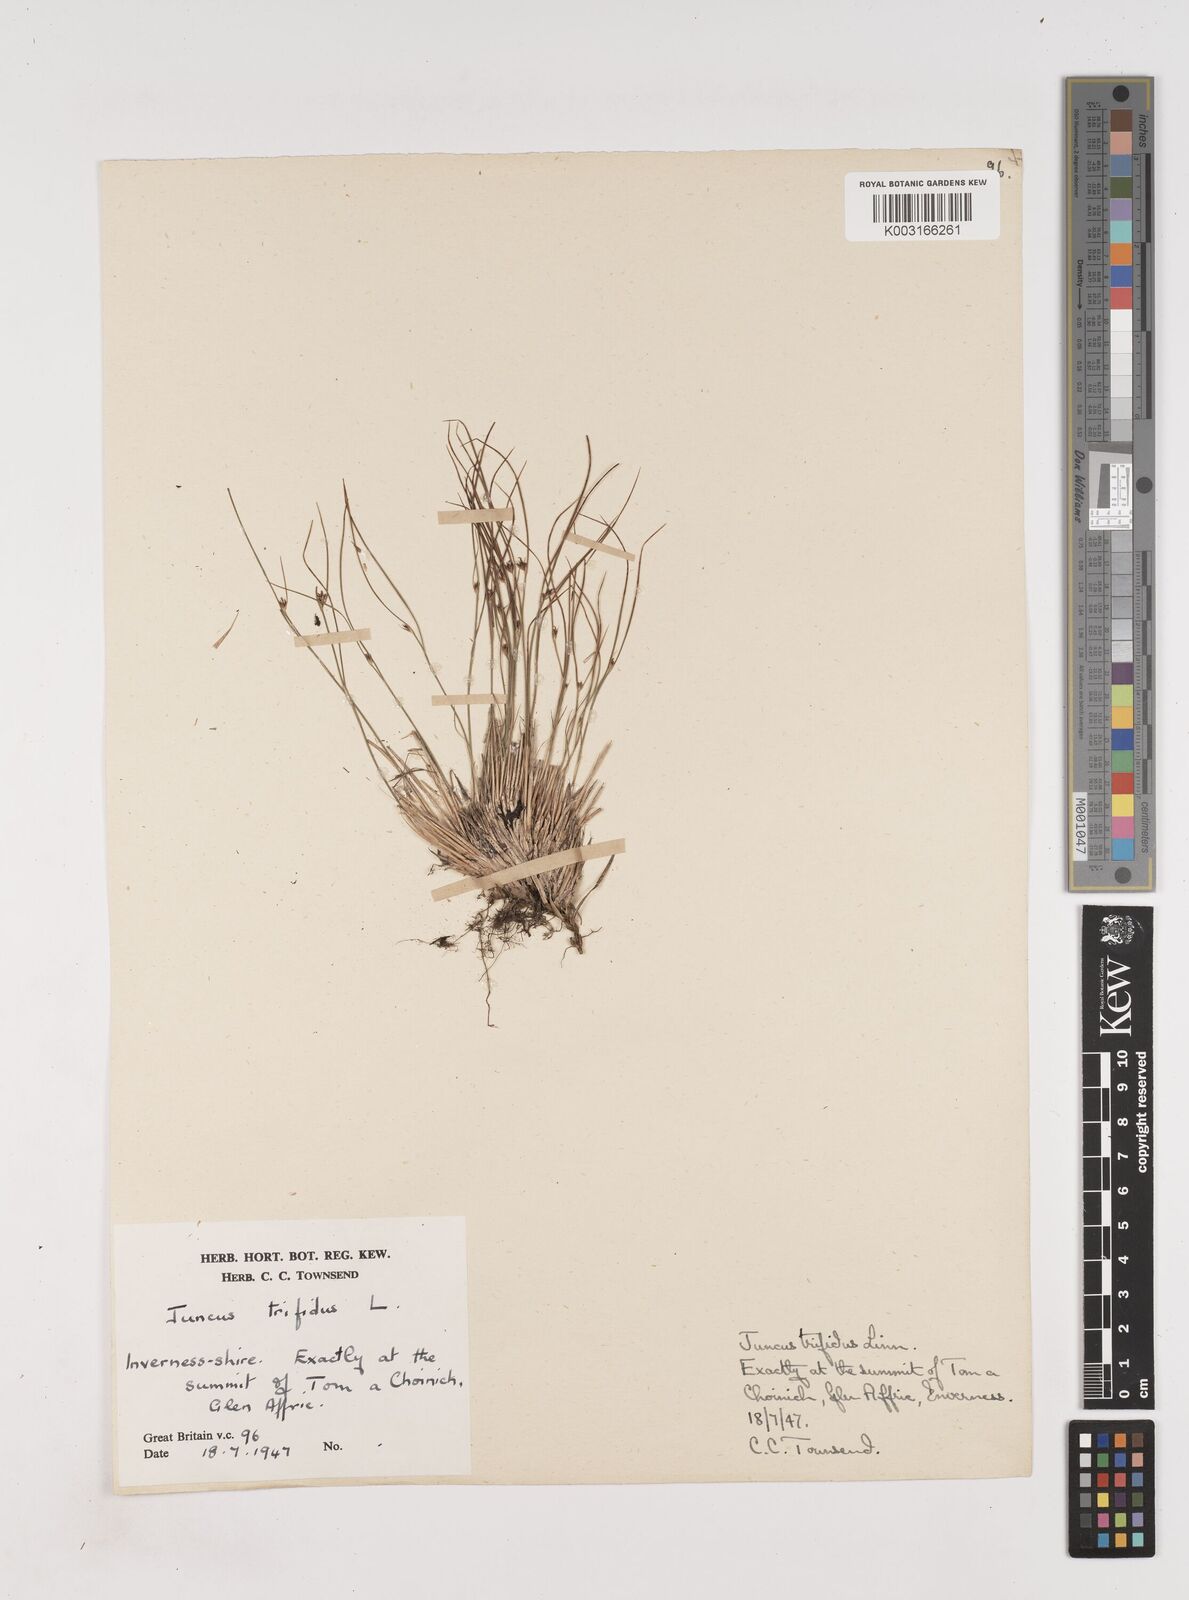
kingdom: Plantae
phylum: Tracheophyta
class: Liliopsida
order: Poales
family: Juncaceae
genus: Oreojuncus
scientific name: Oreojuncus trifidus
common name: Highland rush
